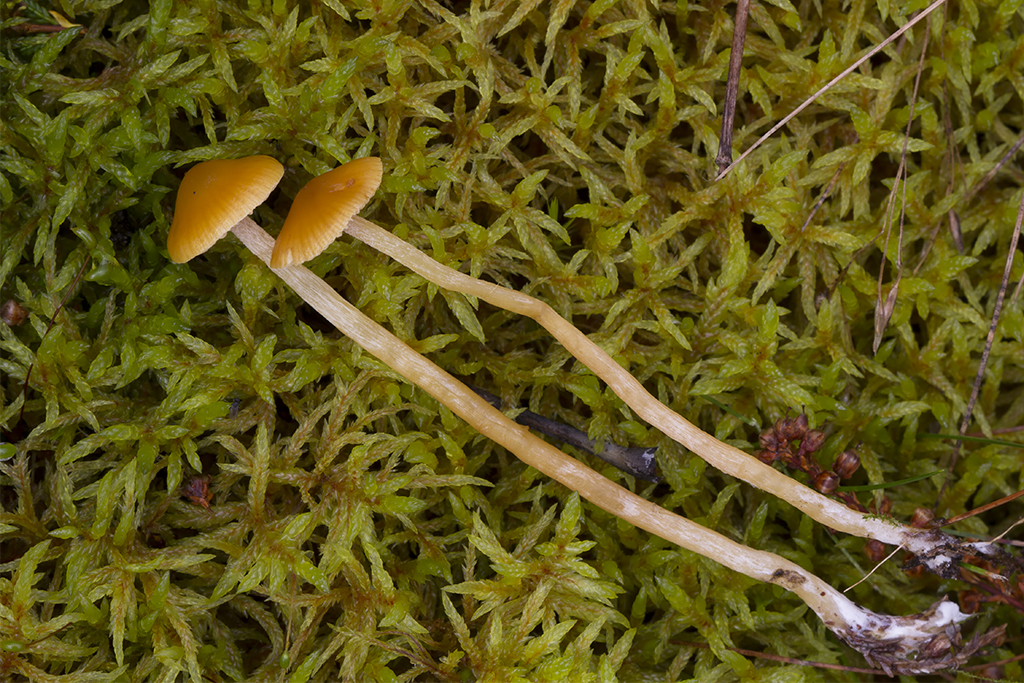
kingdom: Fungi
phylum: Basidiomycota
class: Agaricomycetes
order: Agaricales
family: Hymenogastraceae
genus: Galerina
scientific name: Galerina pumila
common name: honninggul hjelmhat
